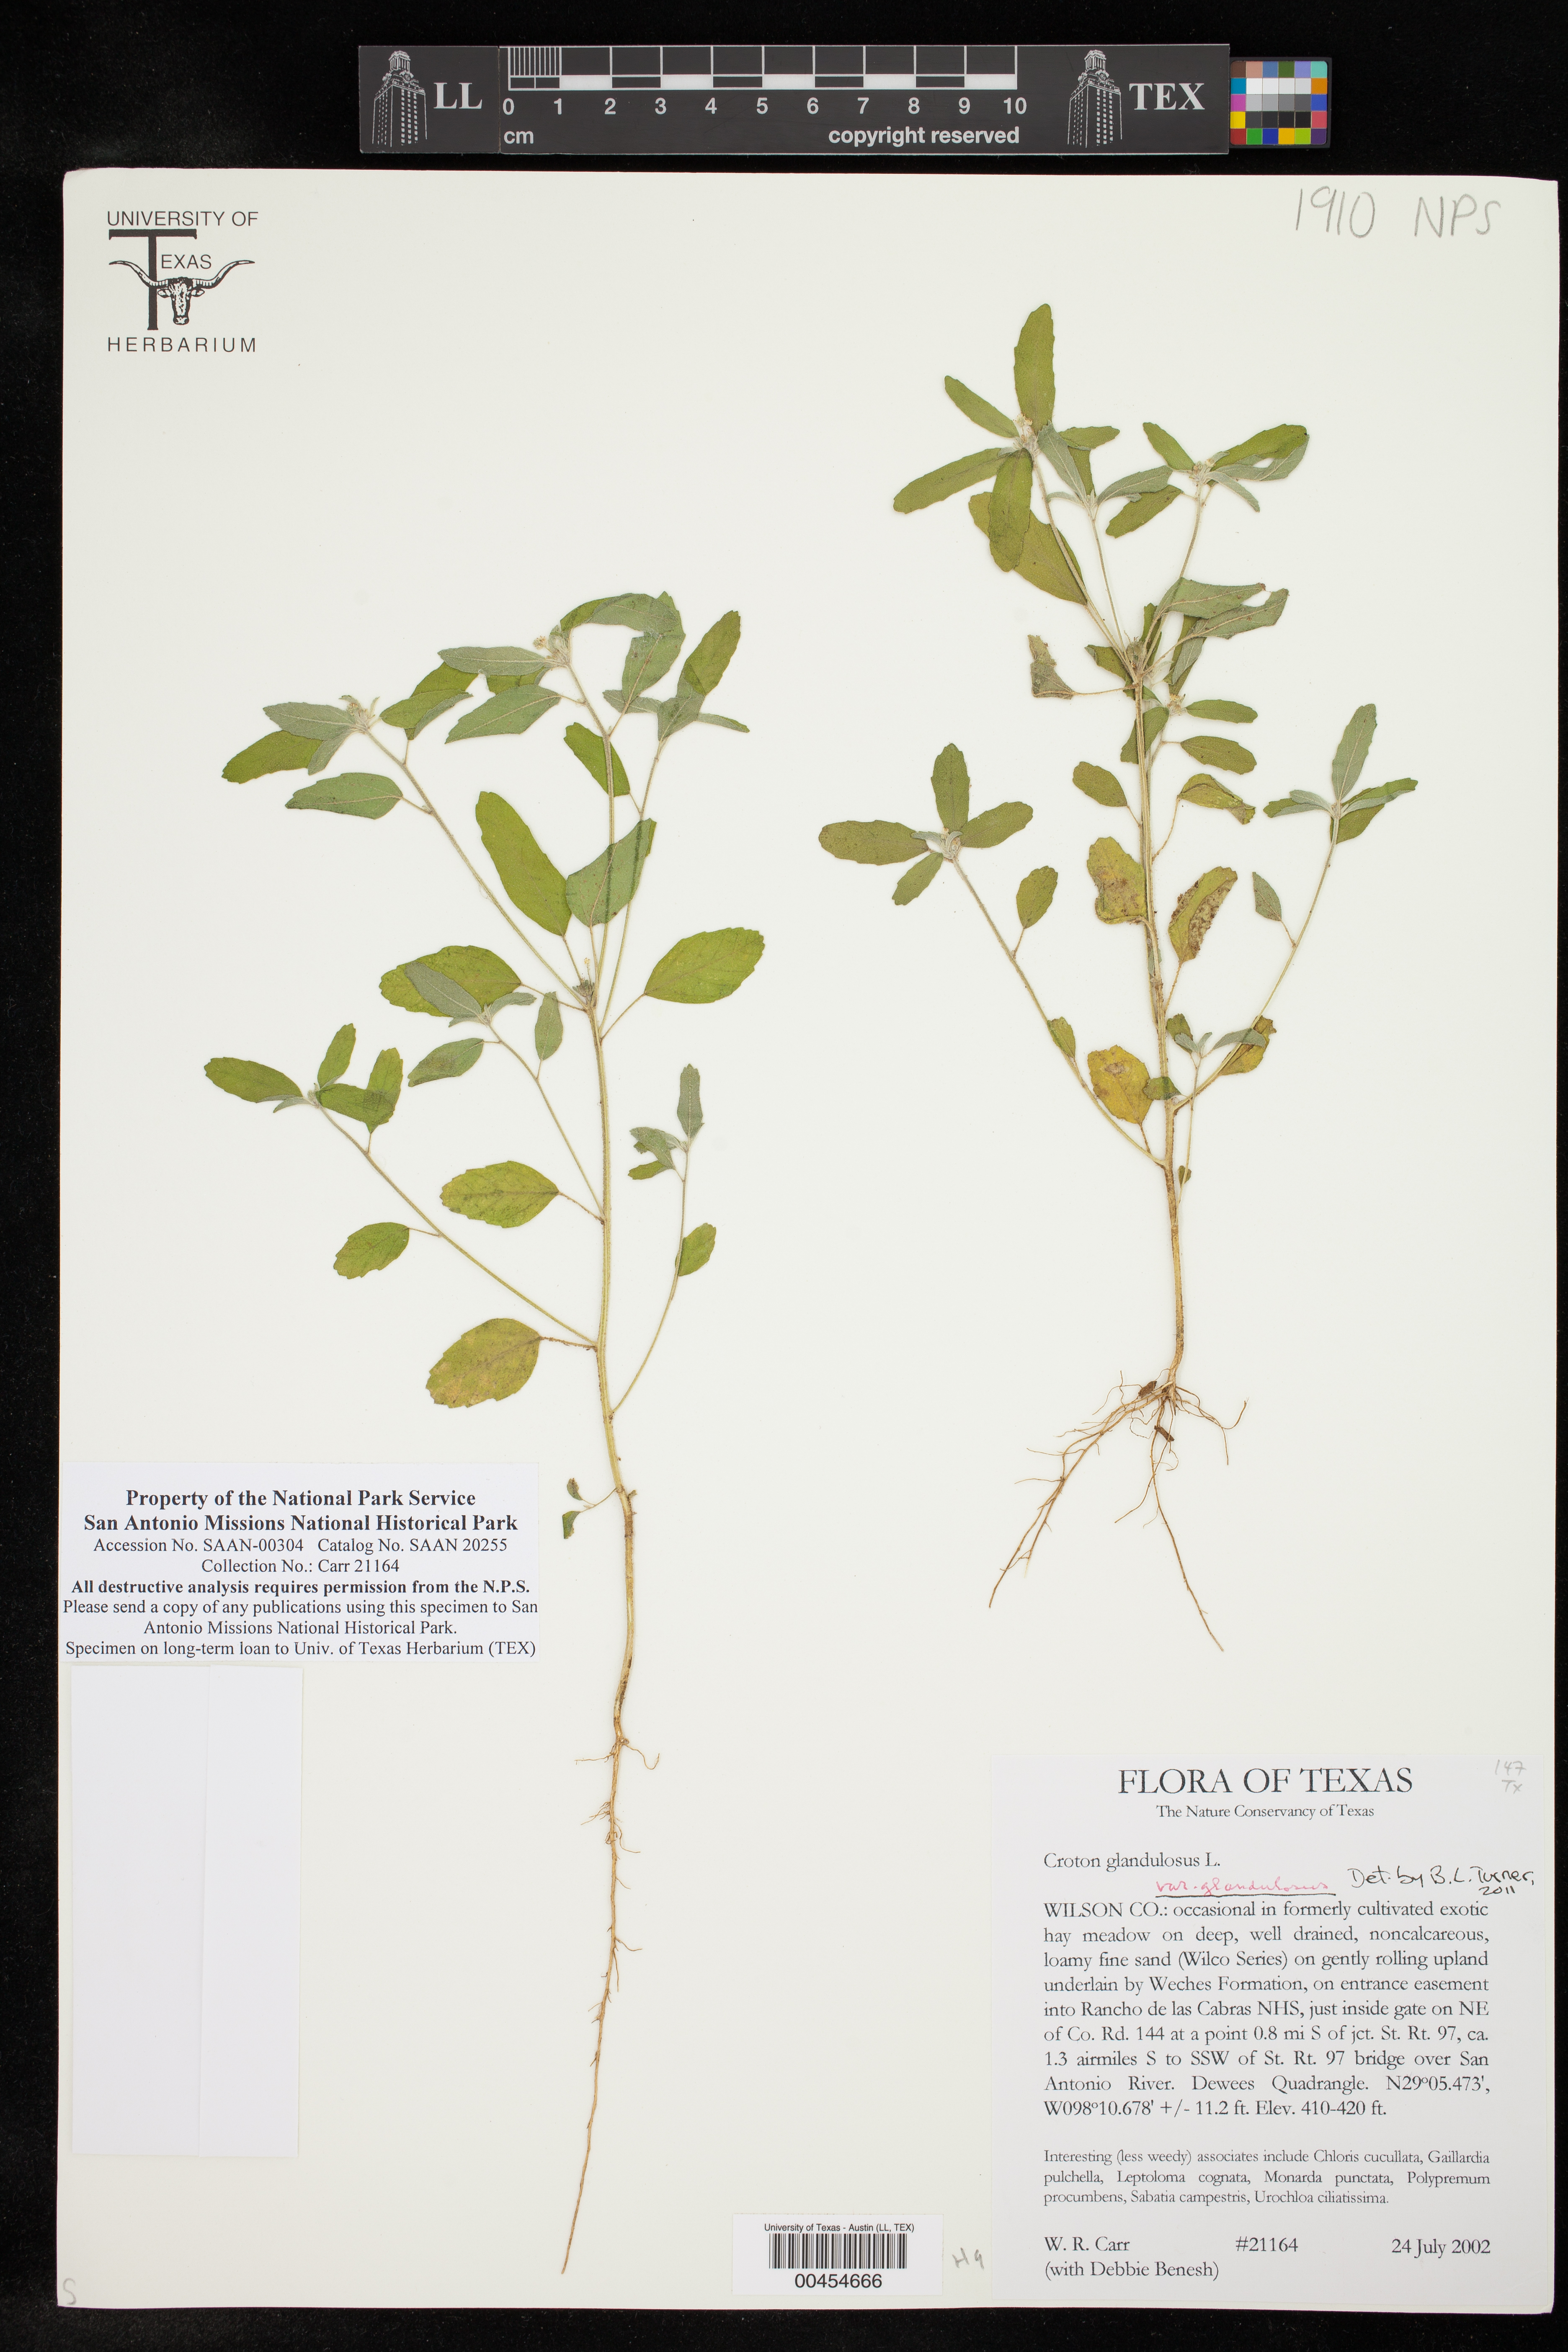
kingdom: Plantae
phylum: Tracheophyta
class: Magnoliopsida
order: Malpighiales
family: Euphorbiaceae
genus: Croton
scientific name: Croton glandulosus
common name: Tropic croton
